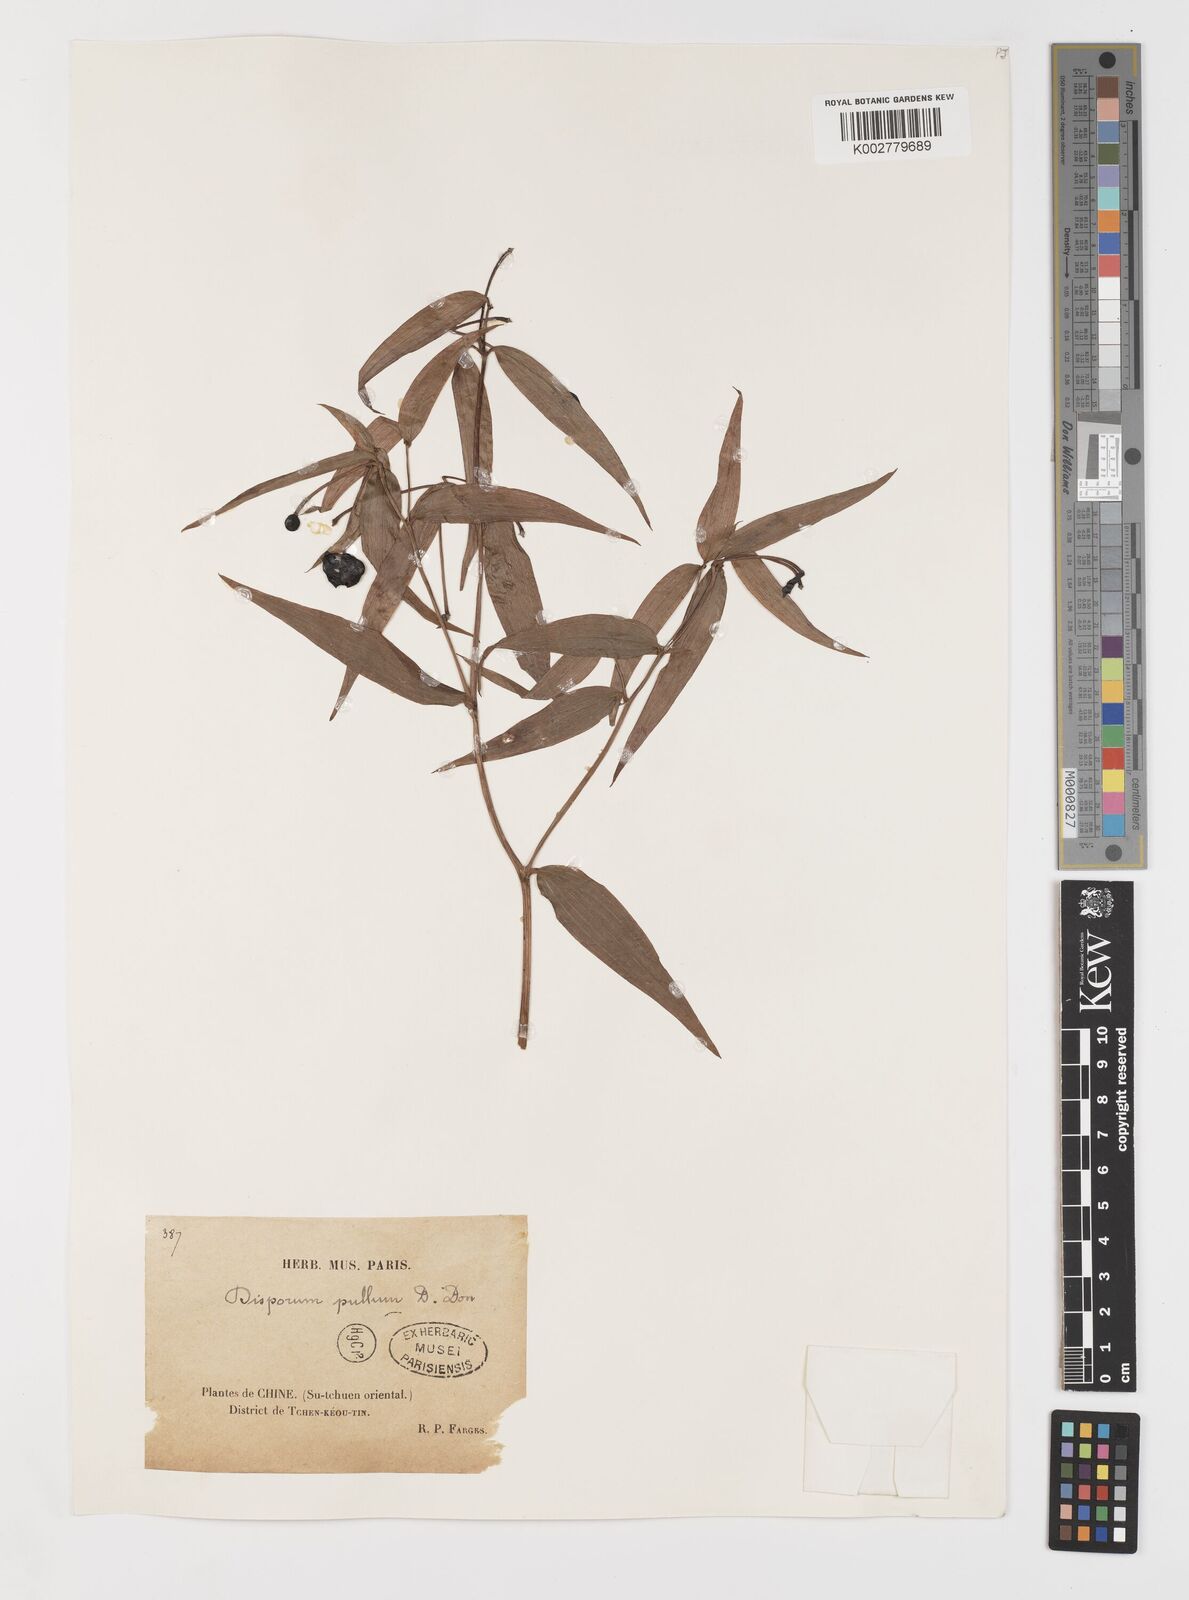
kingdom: Plantae
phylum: Tracheophyta
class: Liliopsida
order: Liliales
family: Colchicaceae
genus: Disporum
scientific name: Disporum cantoniense
